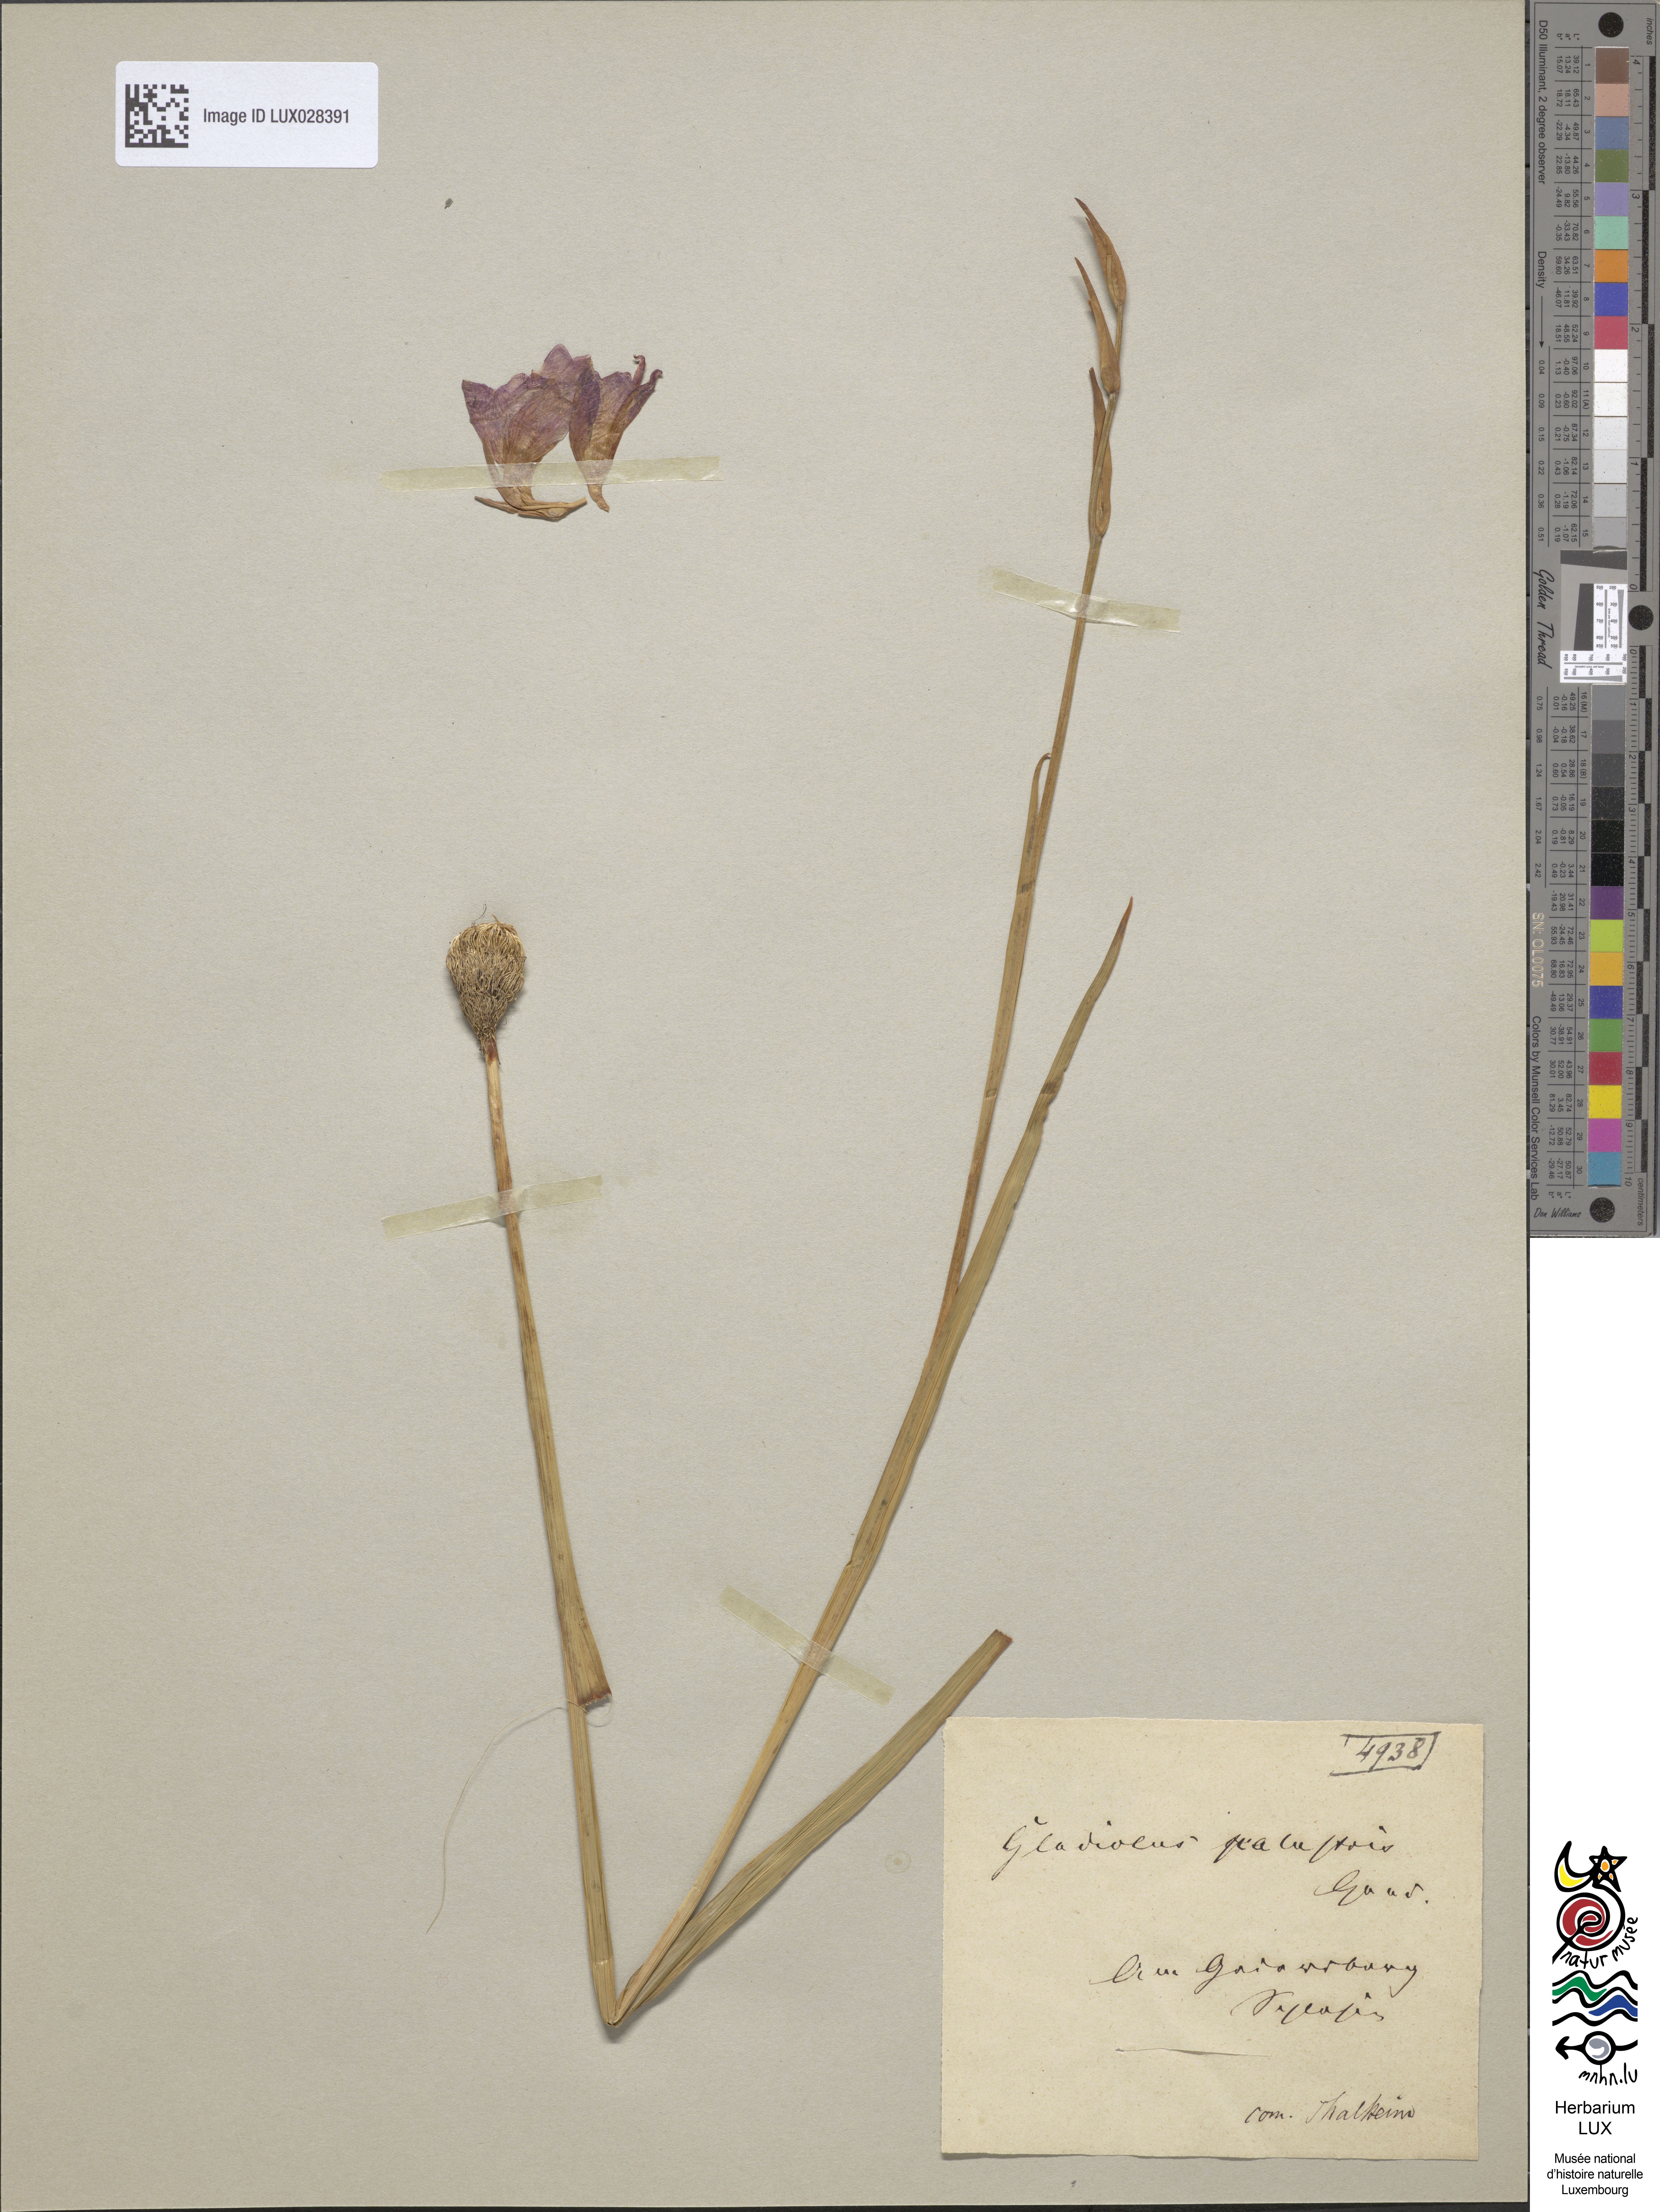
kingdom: Plantae
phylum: Tracheophyta
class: Liliopsida
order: Asparagales
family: Iridaceae
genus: Gladiolus
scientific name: Gladiolus palustris
